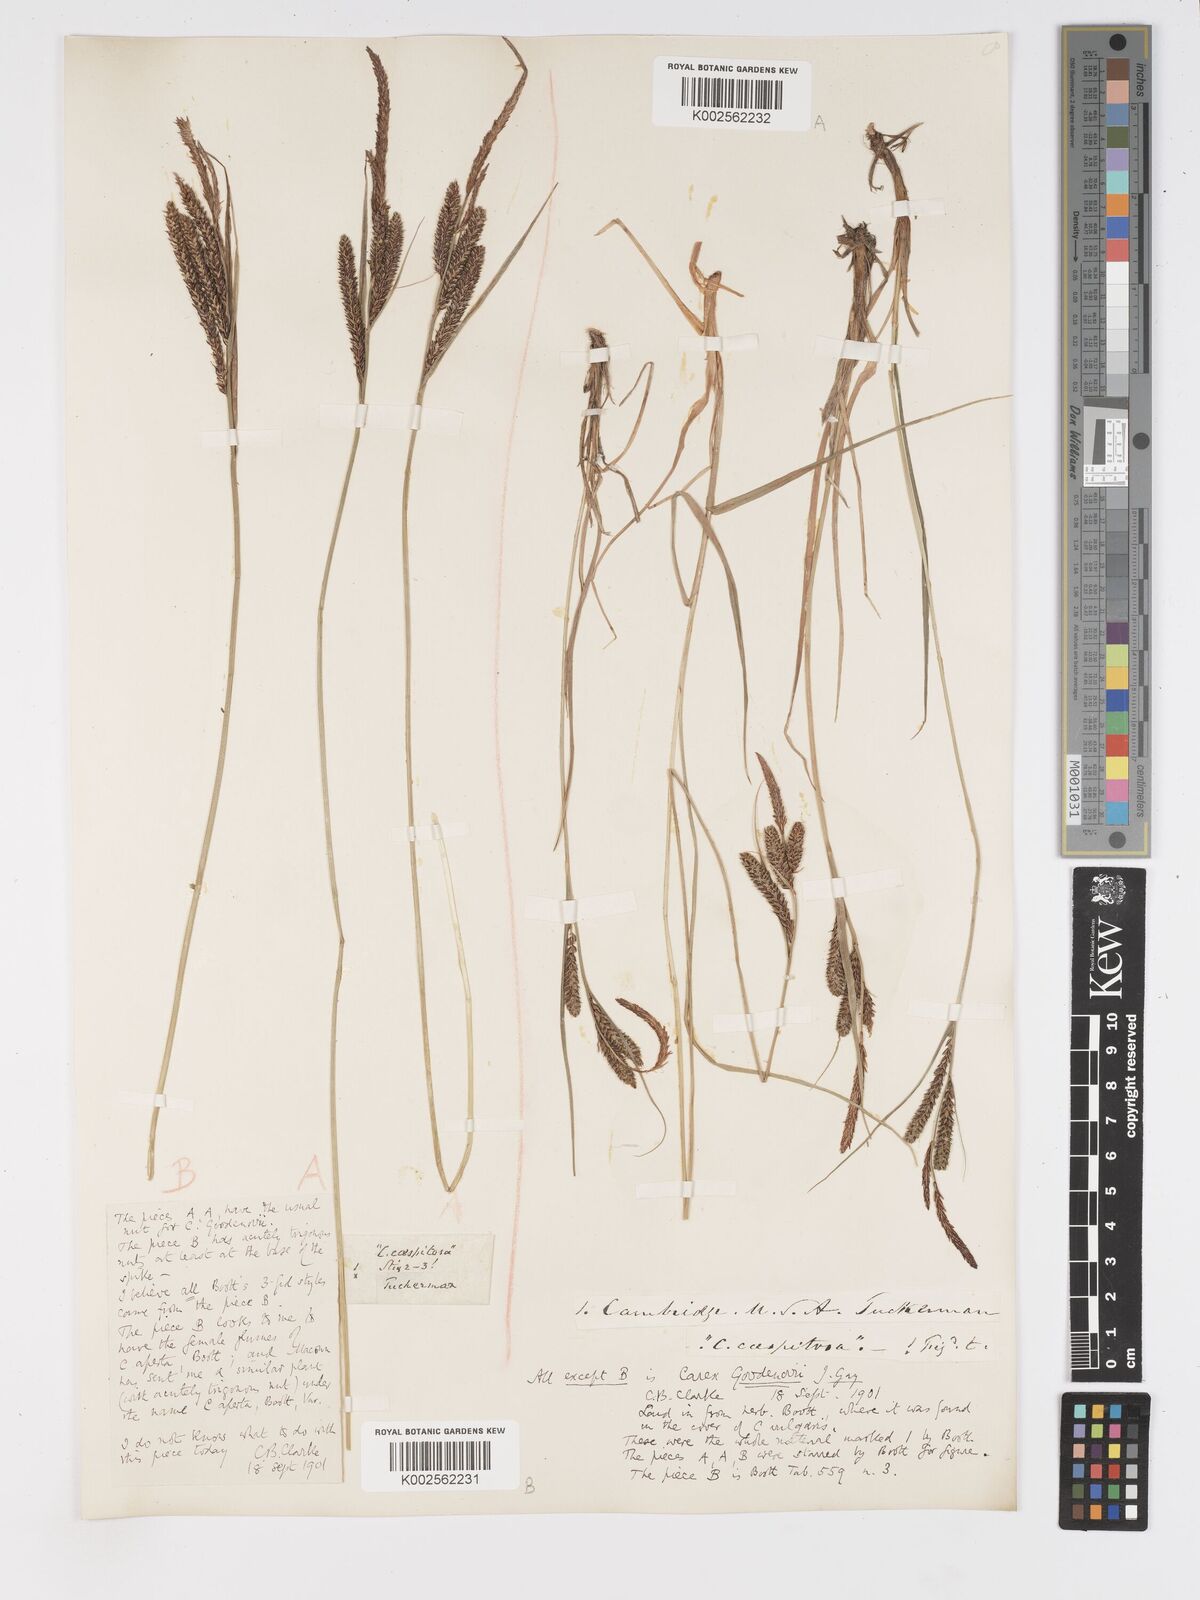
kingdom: Plantae
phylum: Tracheophyta
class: Liliopsida
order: Poales
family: Cyperaceae
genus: Carex
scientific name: Carex nigra
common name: Common sedge
